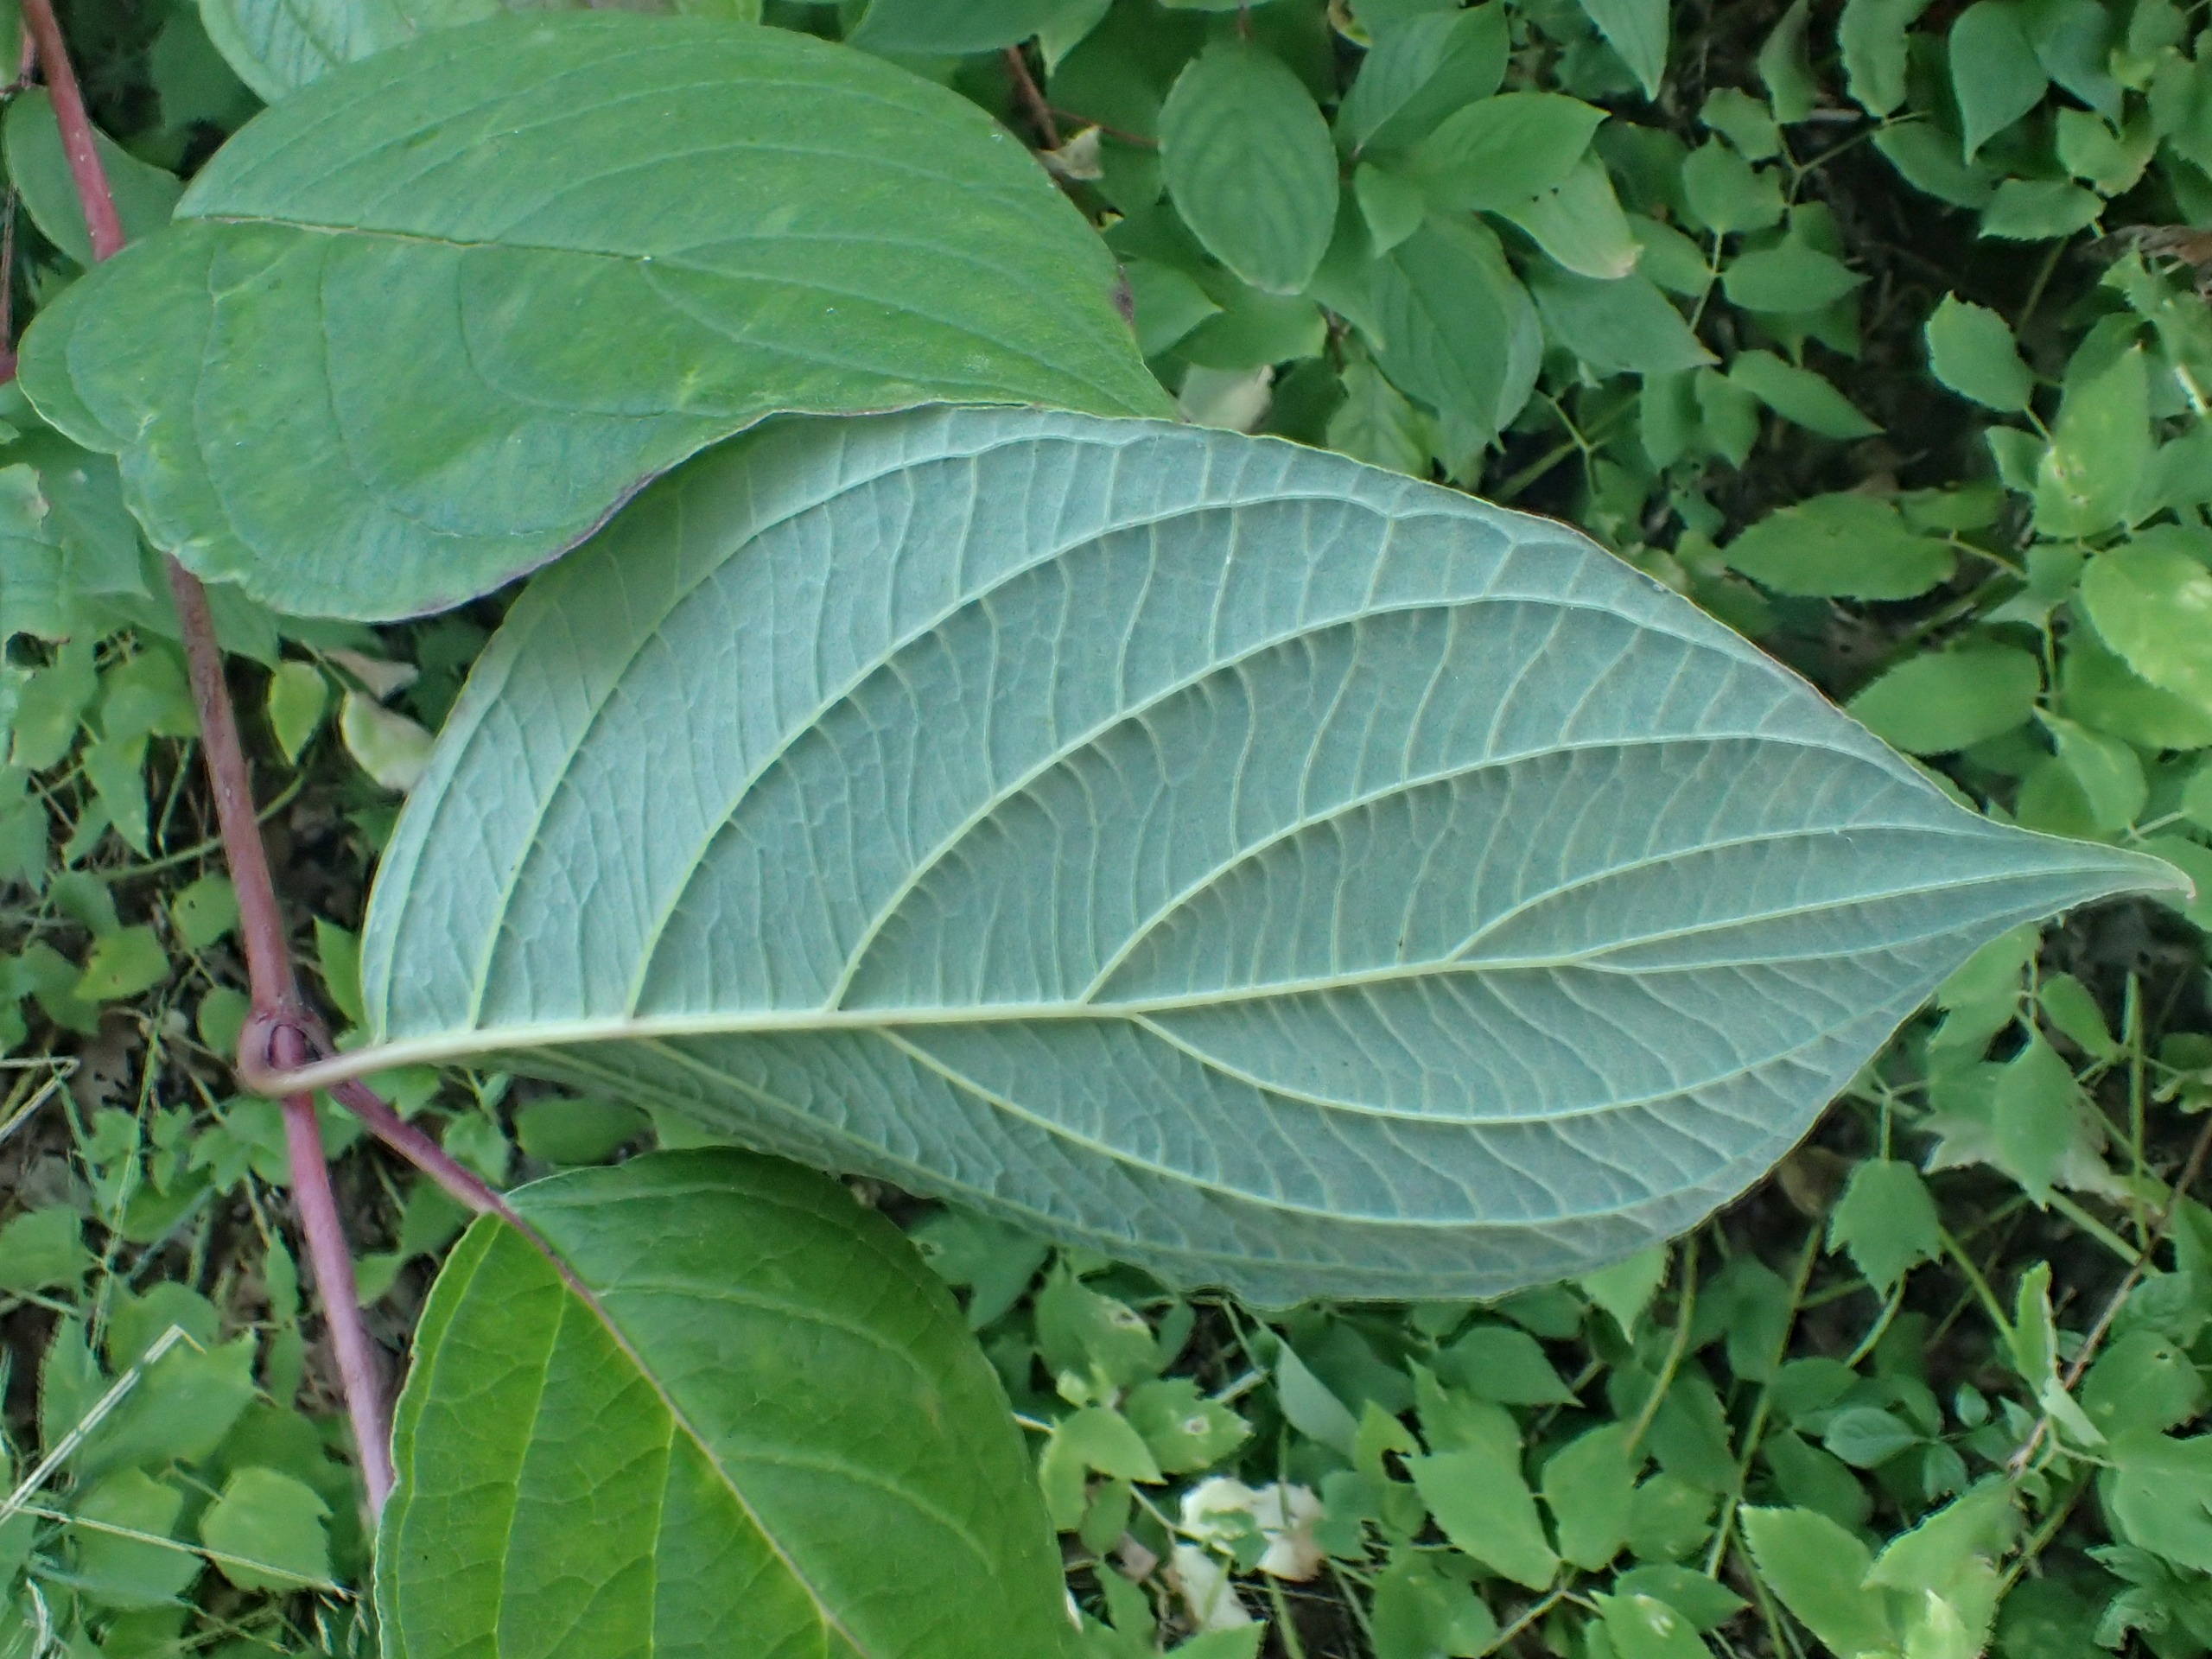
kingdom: Plantae
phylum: Tracheophyta
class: Magnoliopsida
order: Cornales
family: Cornaceae
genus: Cornus
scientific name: Cornus sericea
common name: Krybende kornel
